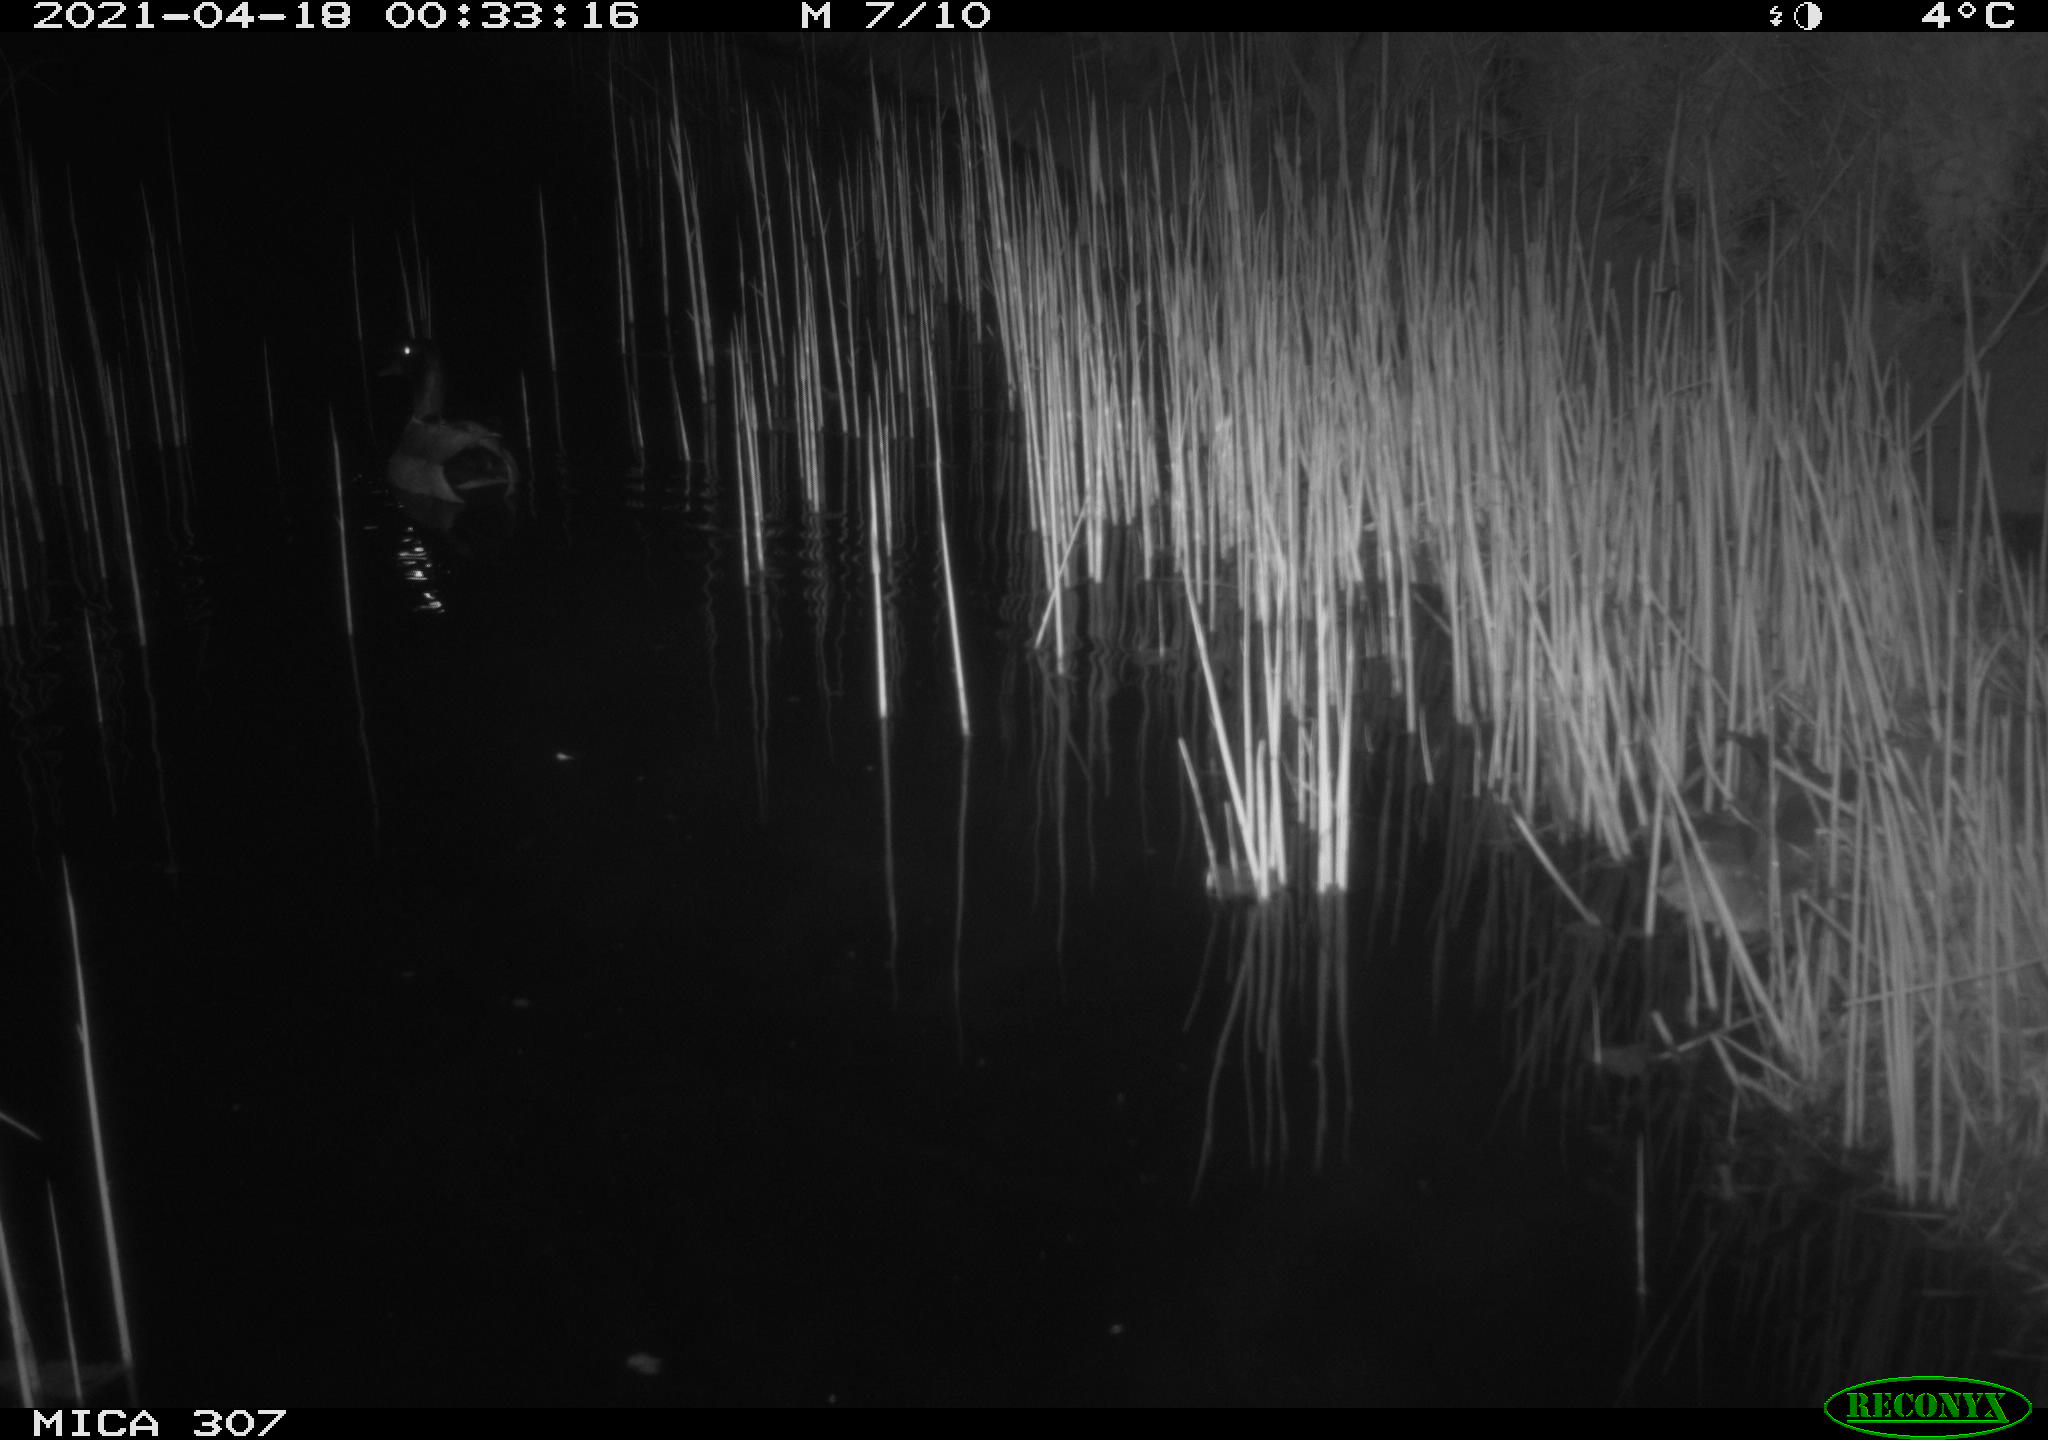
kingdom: Animalia
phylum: Chordata
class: Aves
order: Anseriformes
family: Anatidae
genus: Anas
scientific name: Anas platyrhynchos
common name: Mallard
